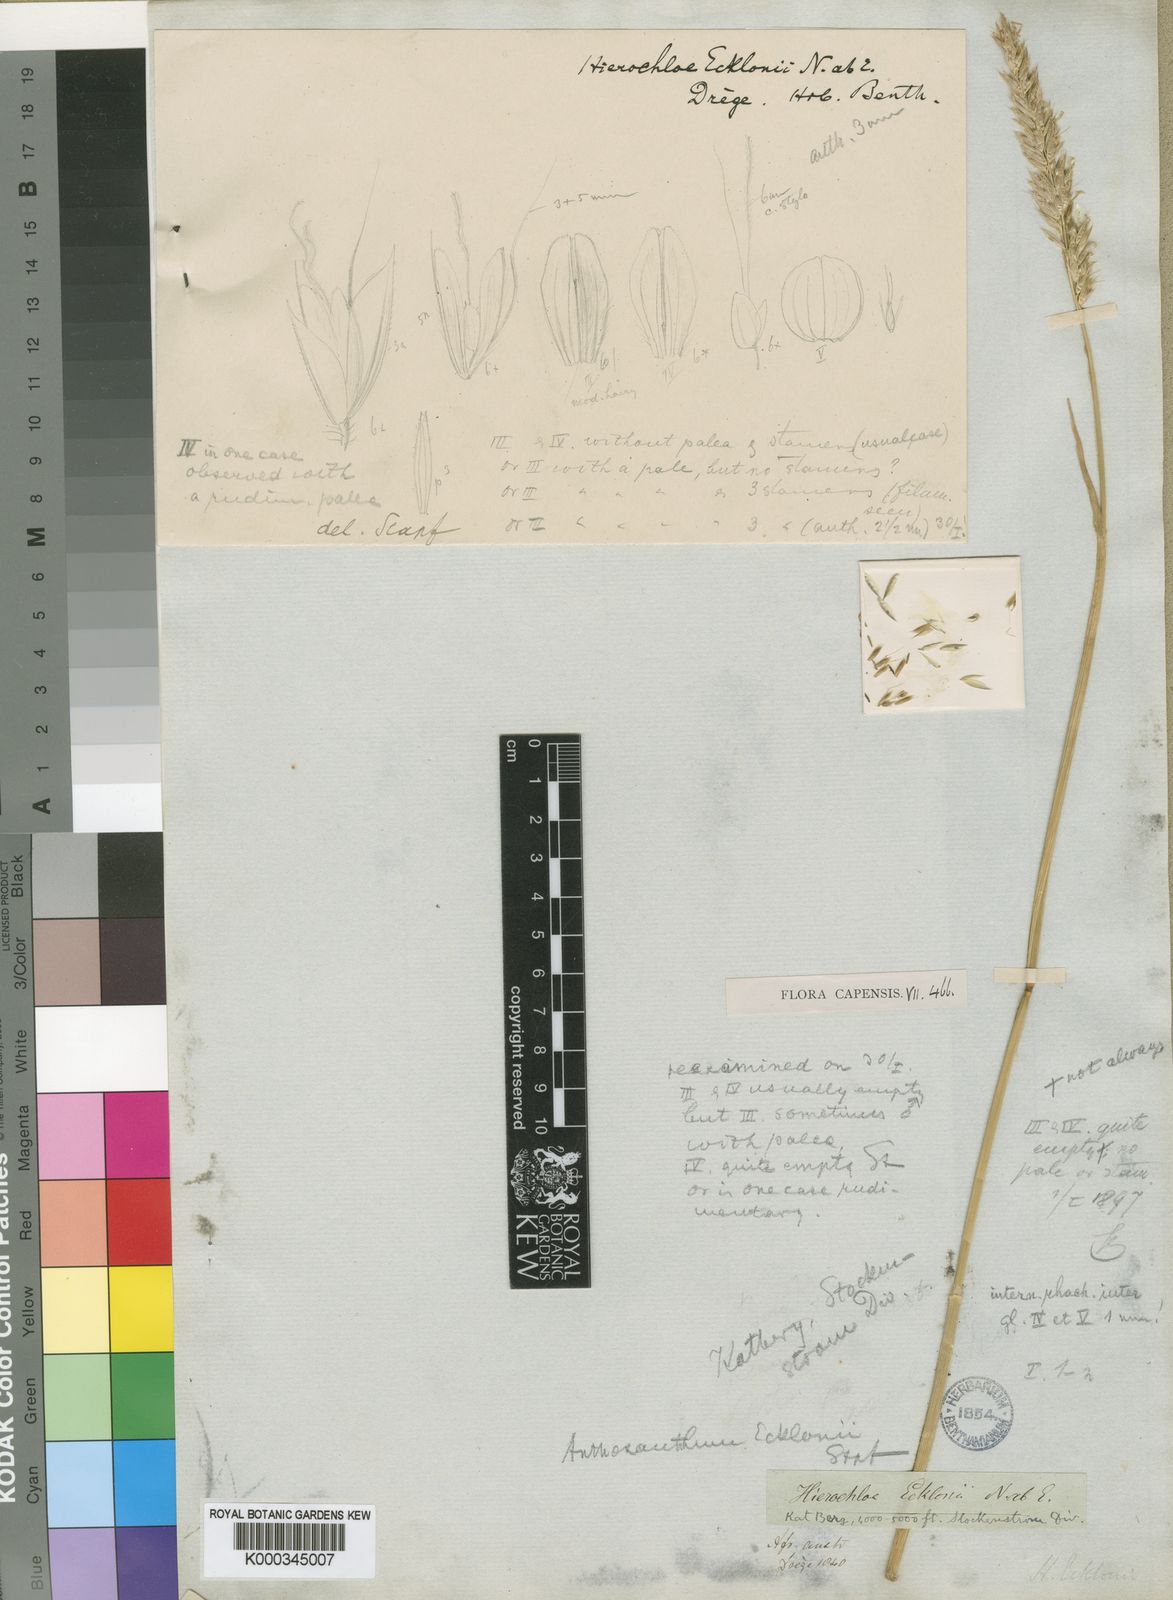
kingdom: Plantae
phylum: Tracheophyta
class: Liliopsida
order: Poales
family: Poaceae
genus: Anthoxanthum
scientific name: Anthoxanthum ecklonii
